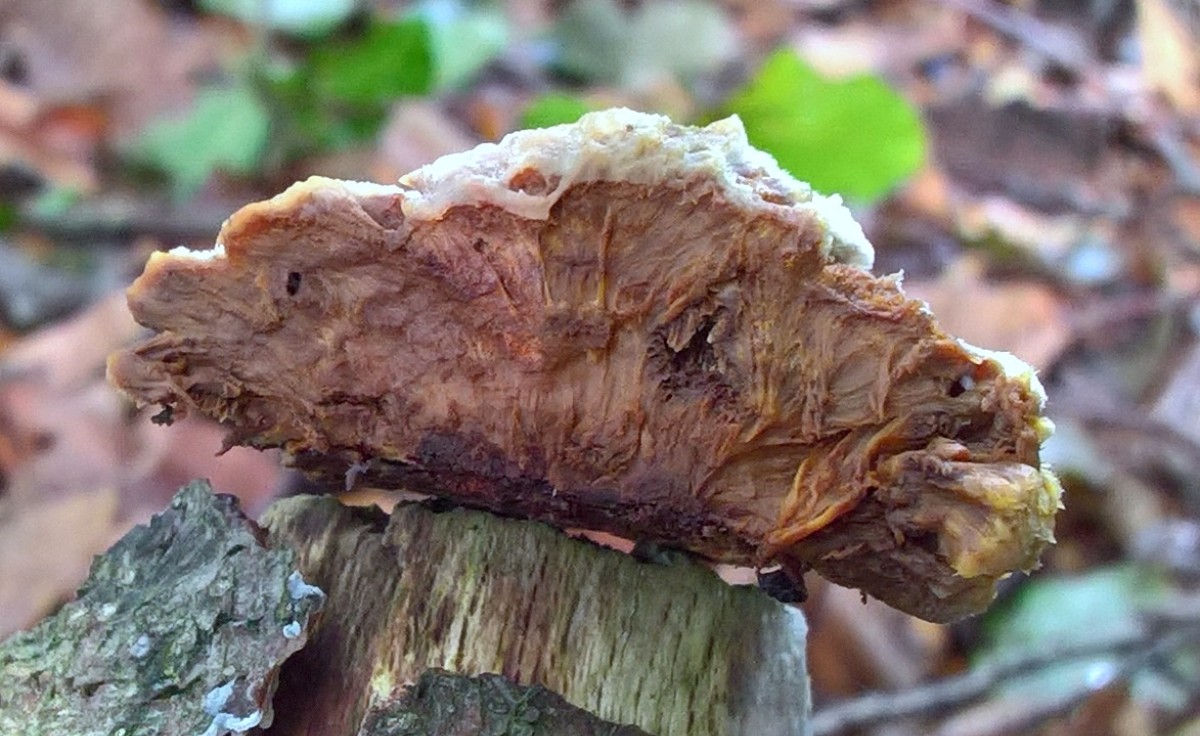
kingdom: Fungi
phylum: Basidiomycota
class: Agaricomycetes
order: Hymenochaetales
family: Hymenochaetaceae
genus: Mensularia
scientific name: Mensularia nodulosa
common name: bøge-spejlporesvamp
